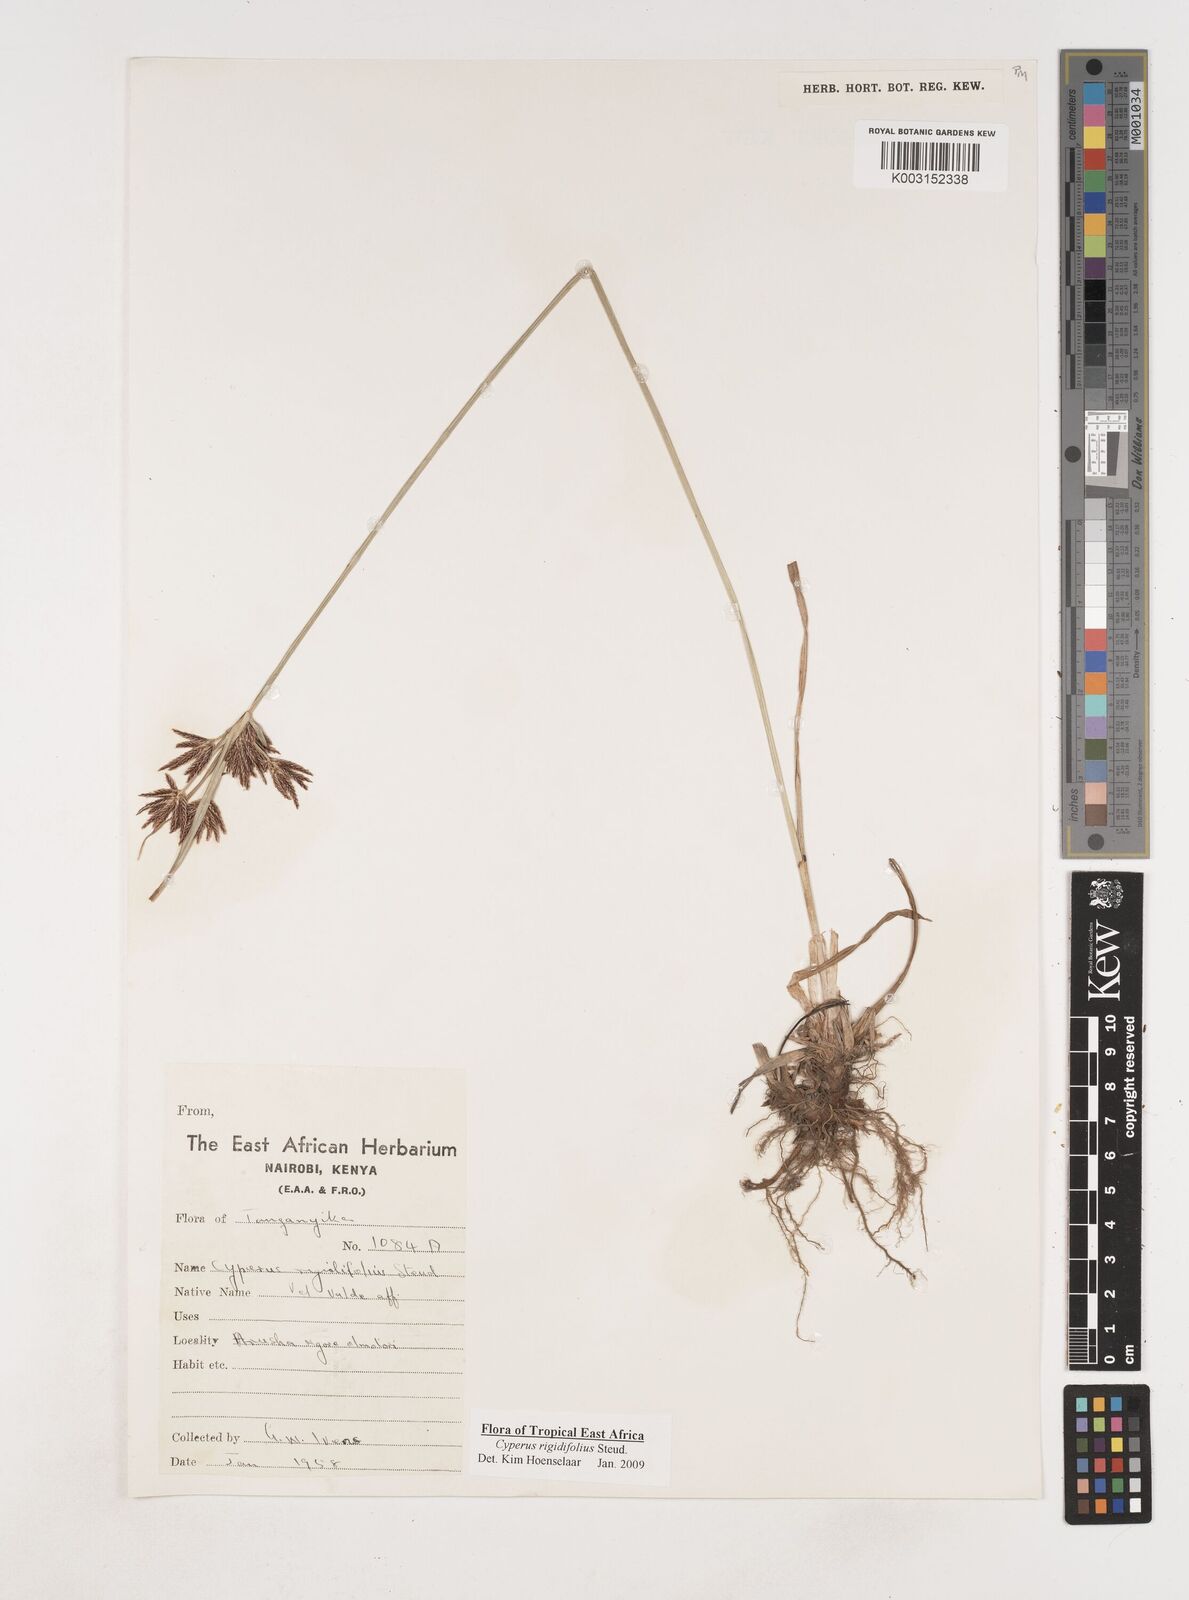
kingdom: Plantae
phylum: Tracheophyta
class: Liliopsida
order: Poales
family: Cyperaceae
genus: Cyperus
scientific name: Cyperus rigidifolius
